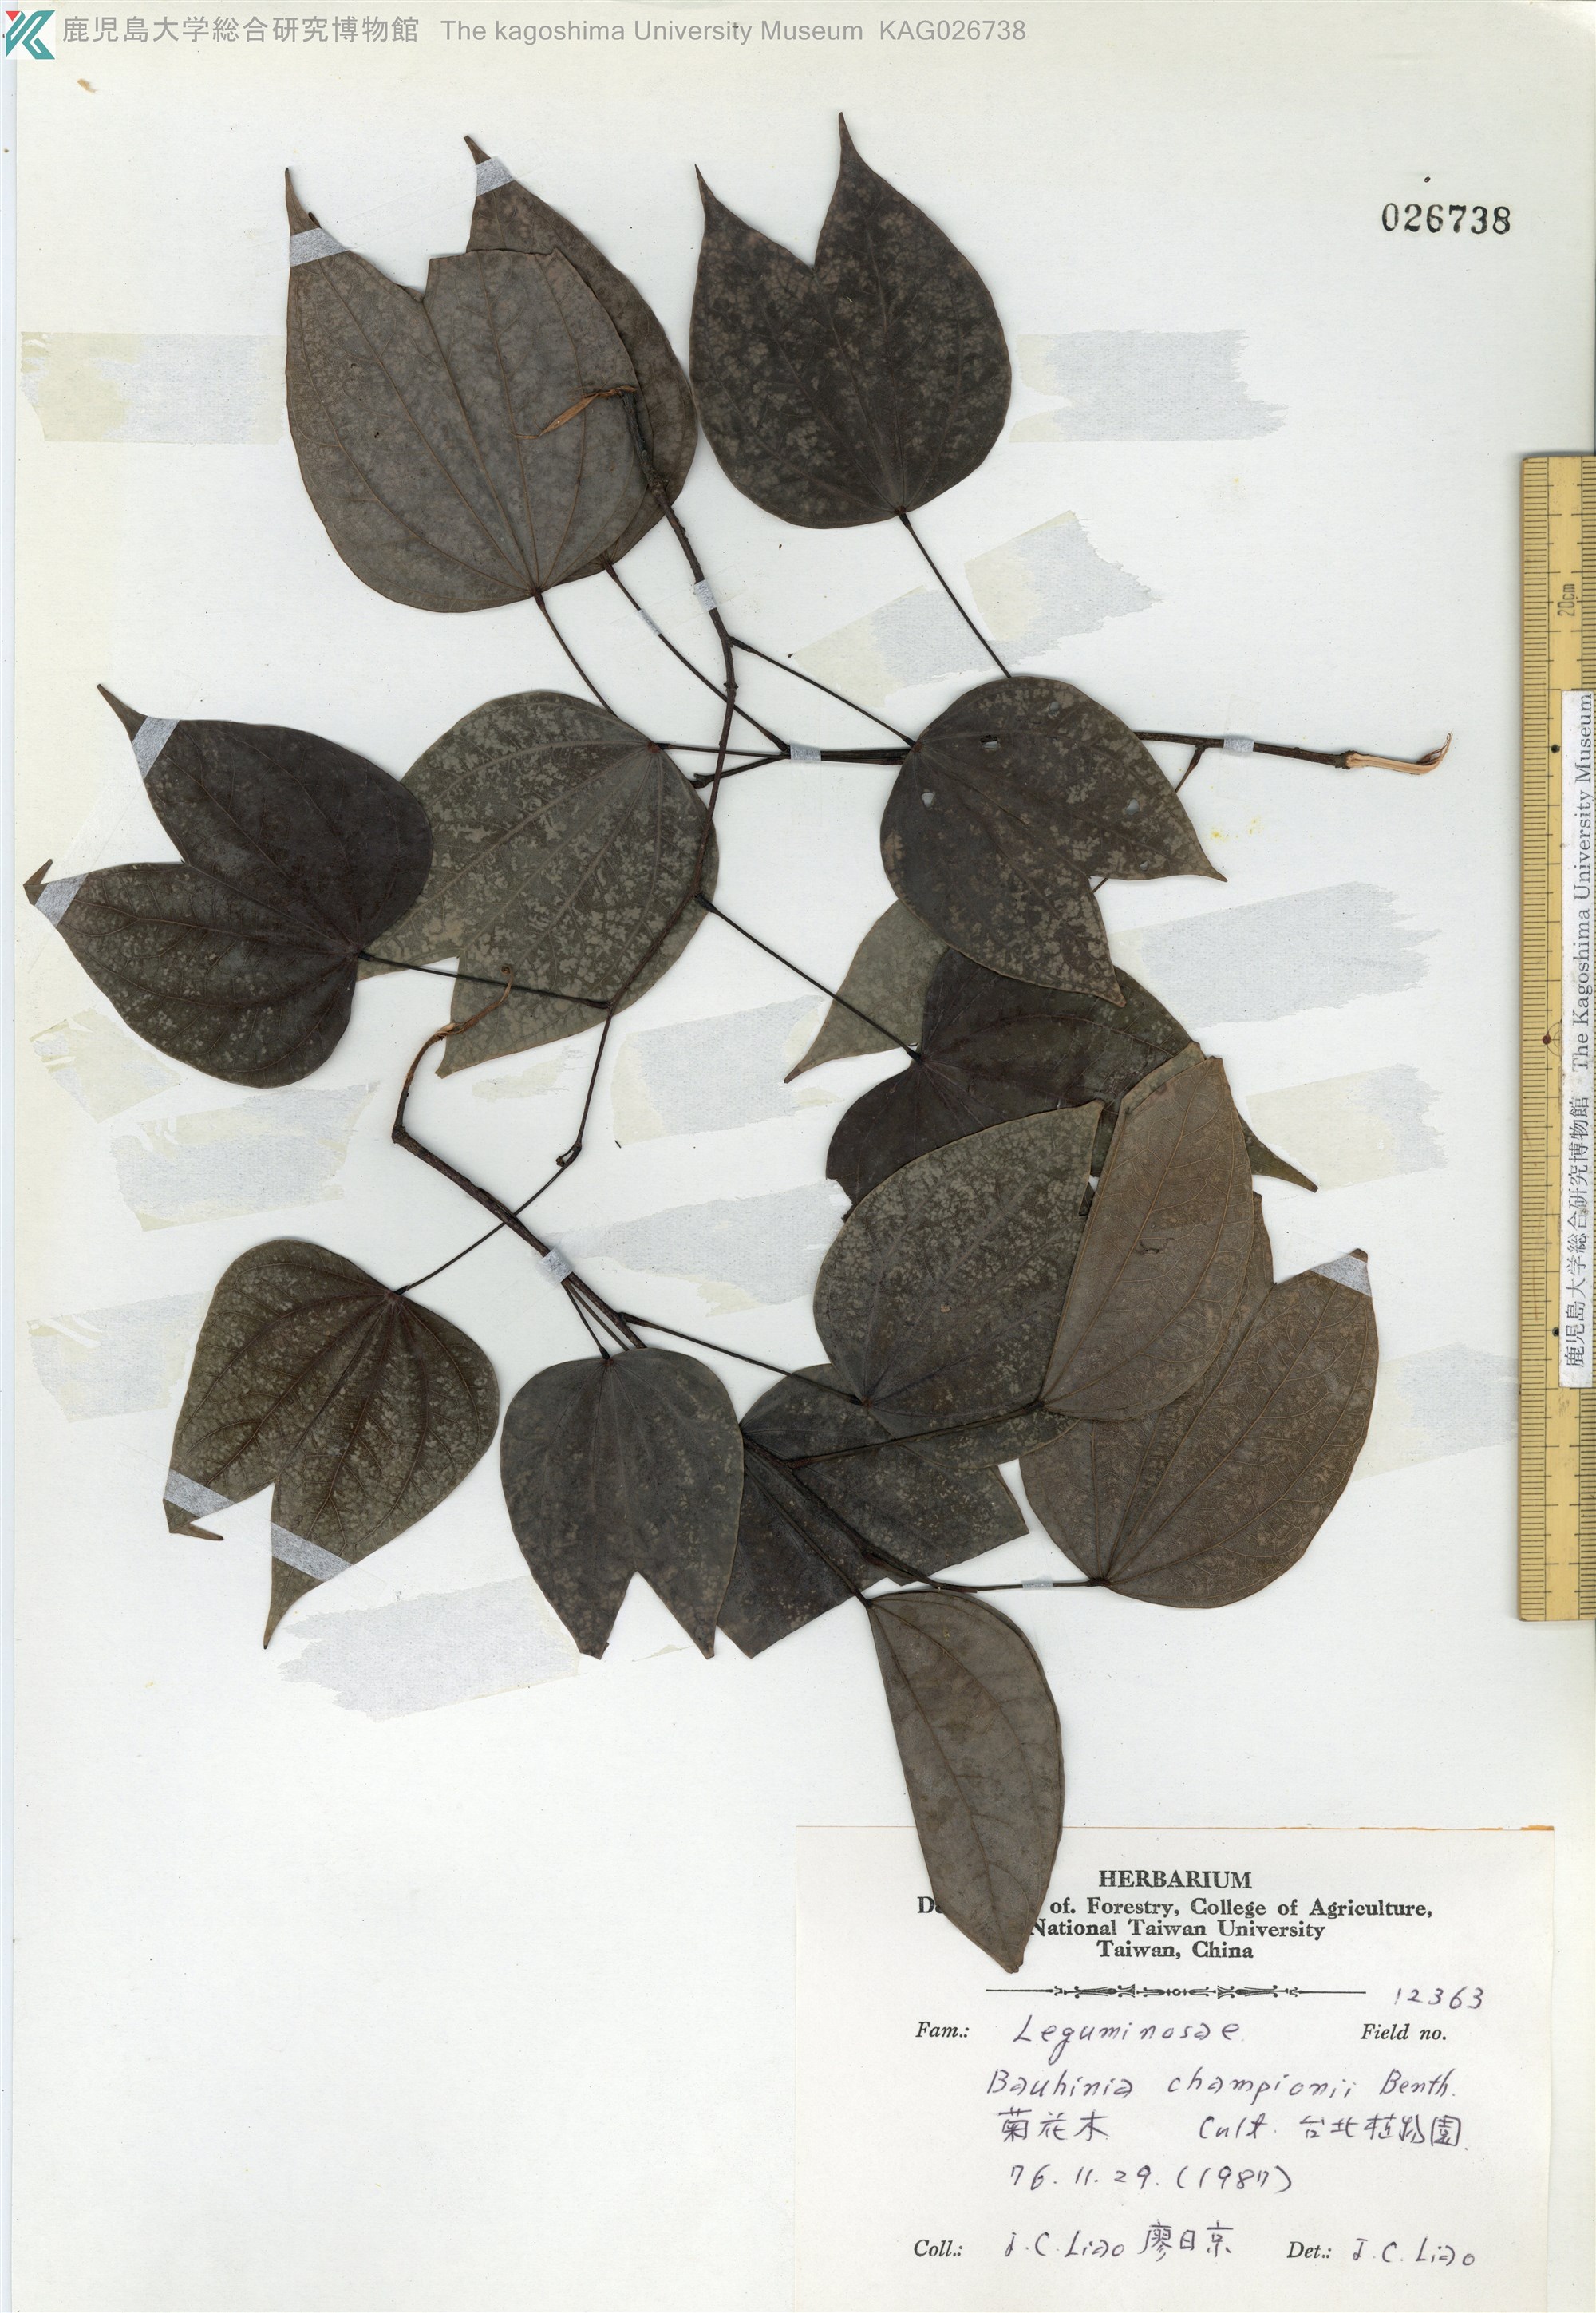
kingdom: Plantae
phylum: Tracheophyta
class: Magnoliopsida
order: Fabales
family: Fabaceae
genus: Phanera
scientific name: Phanera championii
